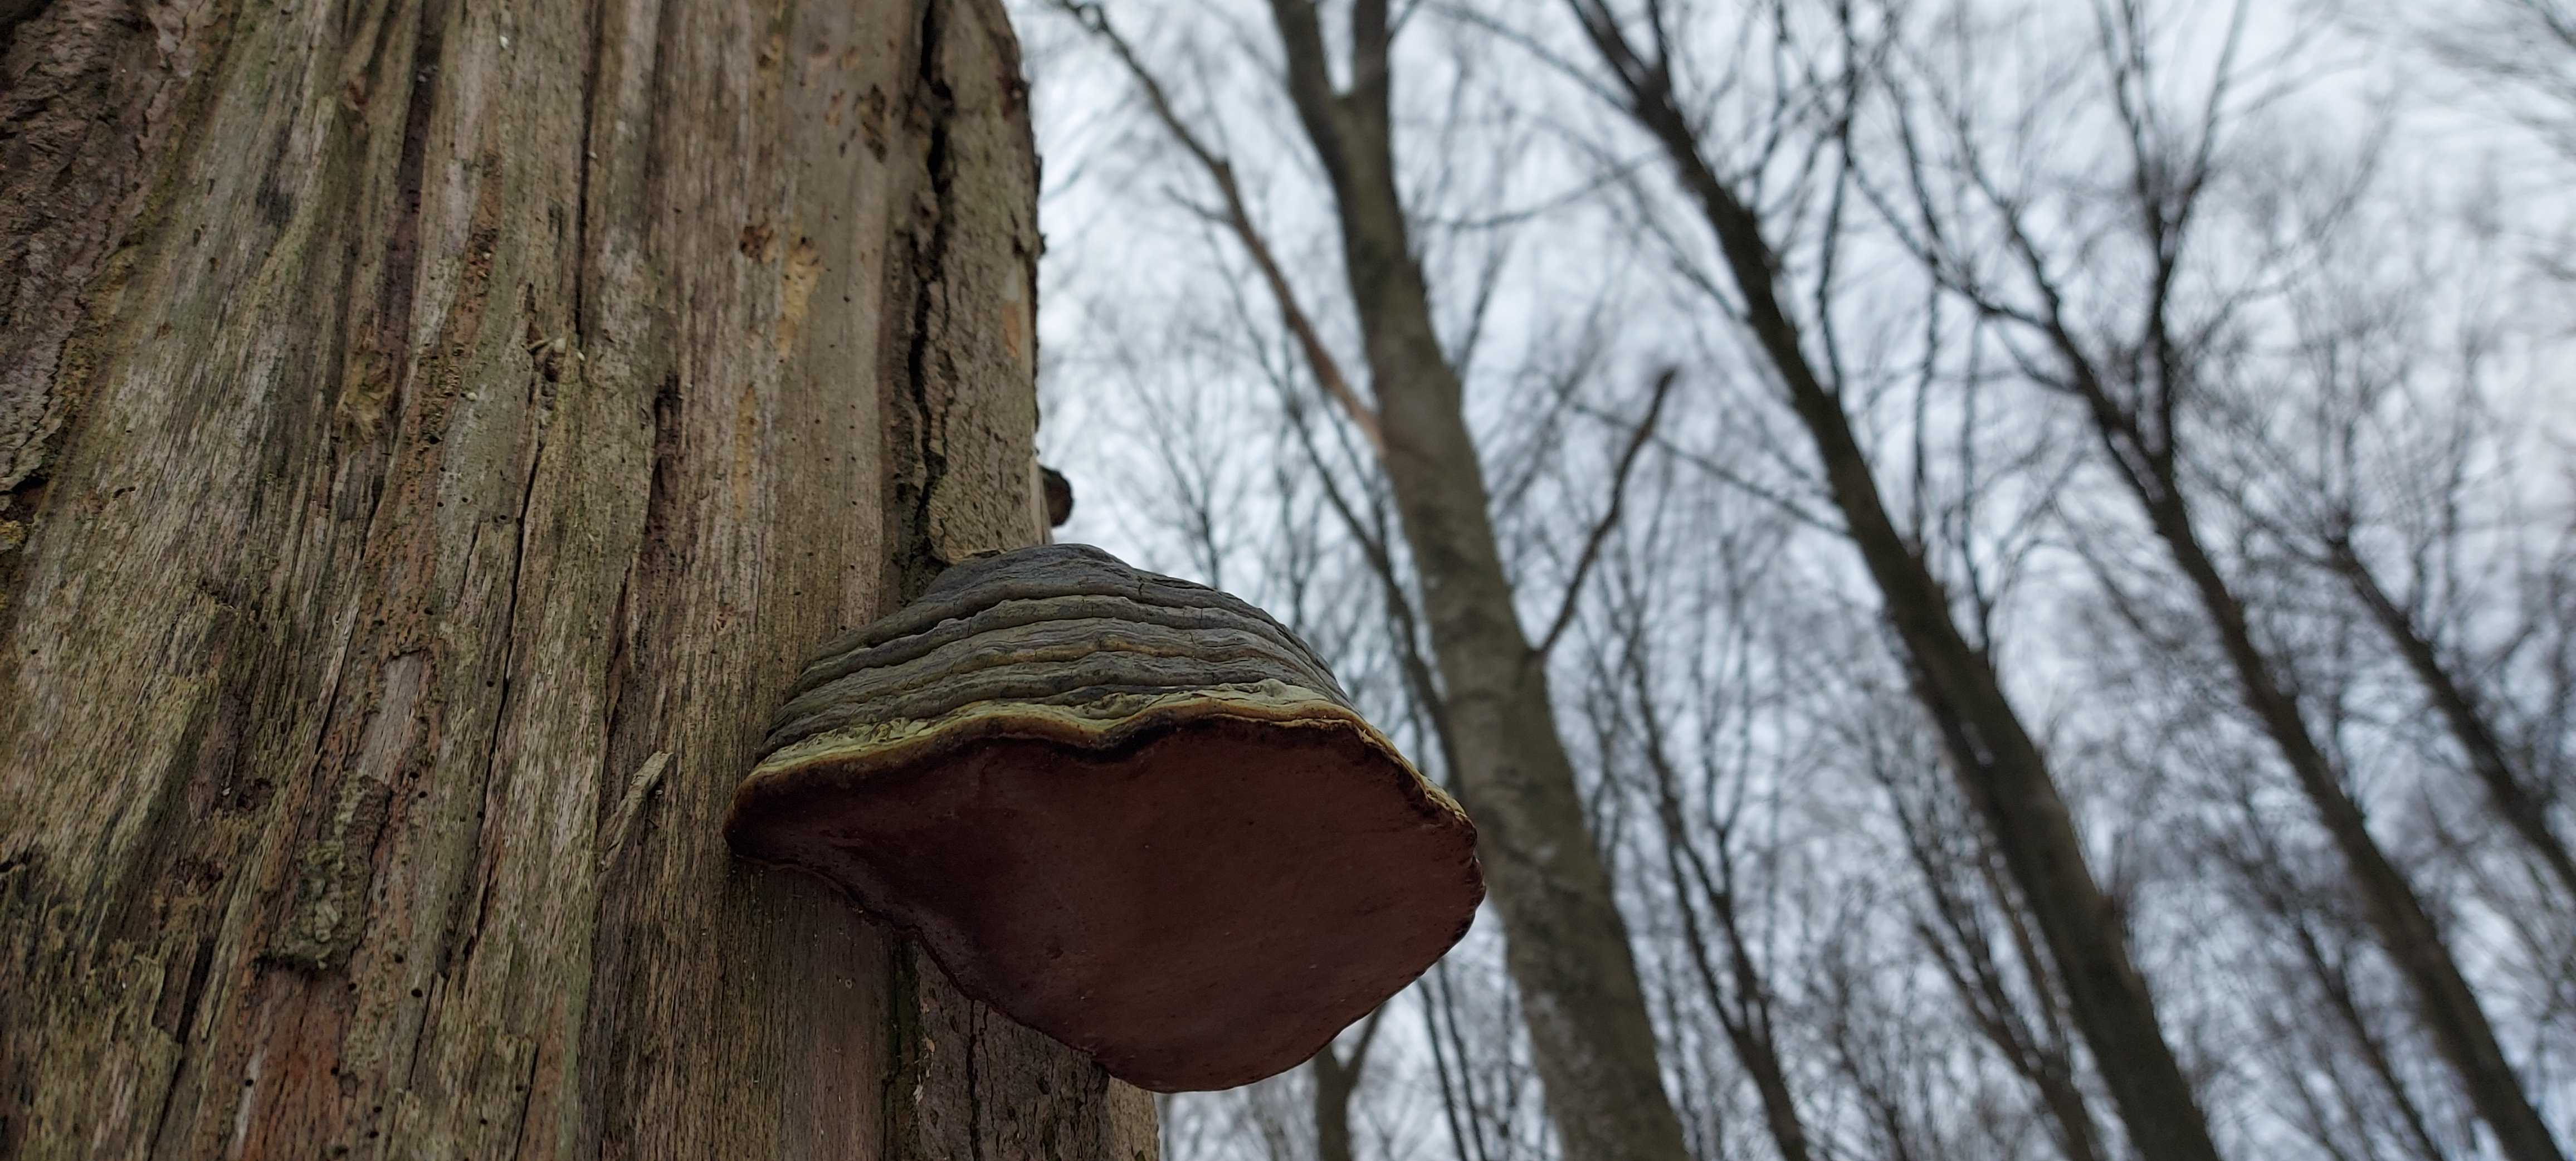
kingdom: Fungi
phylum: Basidiomycota
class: Agaricomycetes
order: Polyporales
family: Polyporaceae
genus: Fomes
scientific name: Fomes fomentarius
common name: tøndersvamp
